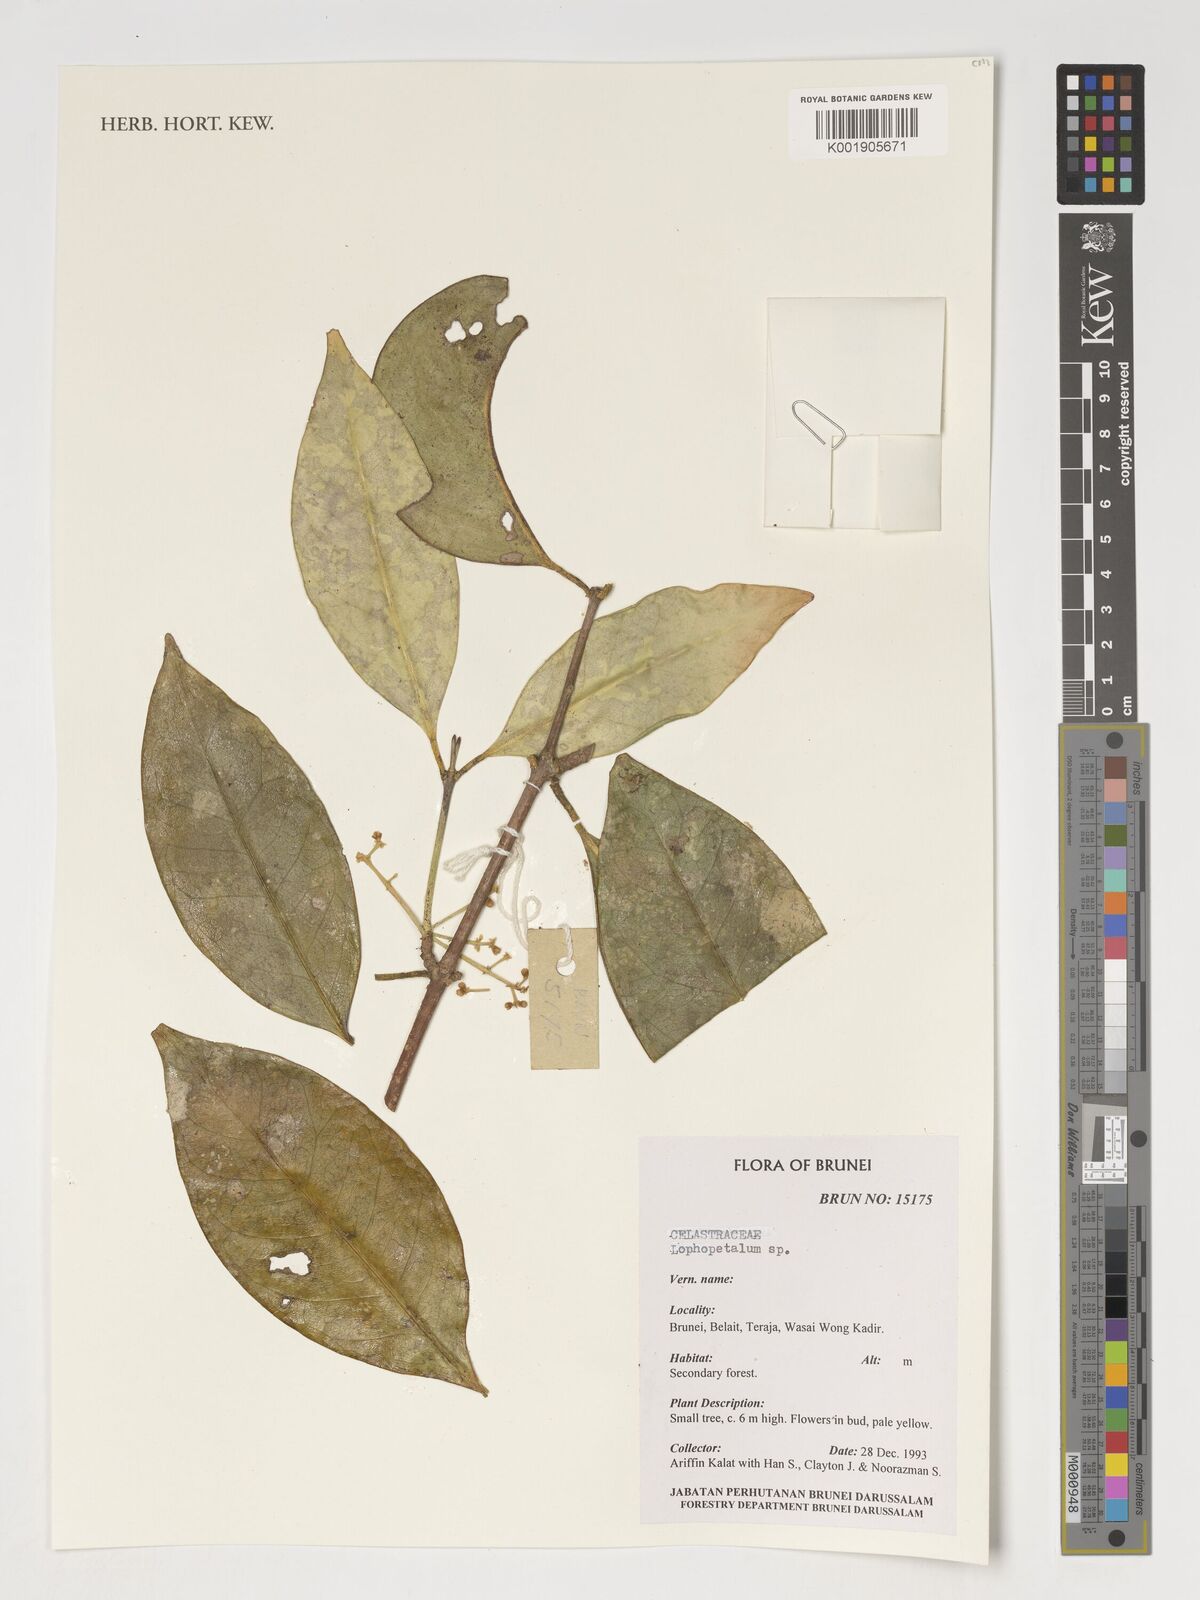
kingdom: Plantae
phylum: Tracheophyta
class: Magnoliopsida
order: Celastrales
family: Celastraceae
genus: Lophopetalum
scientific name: Lophopetalum
